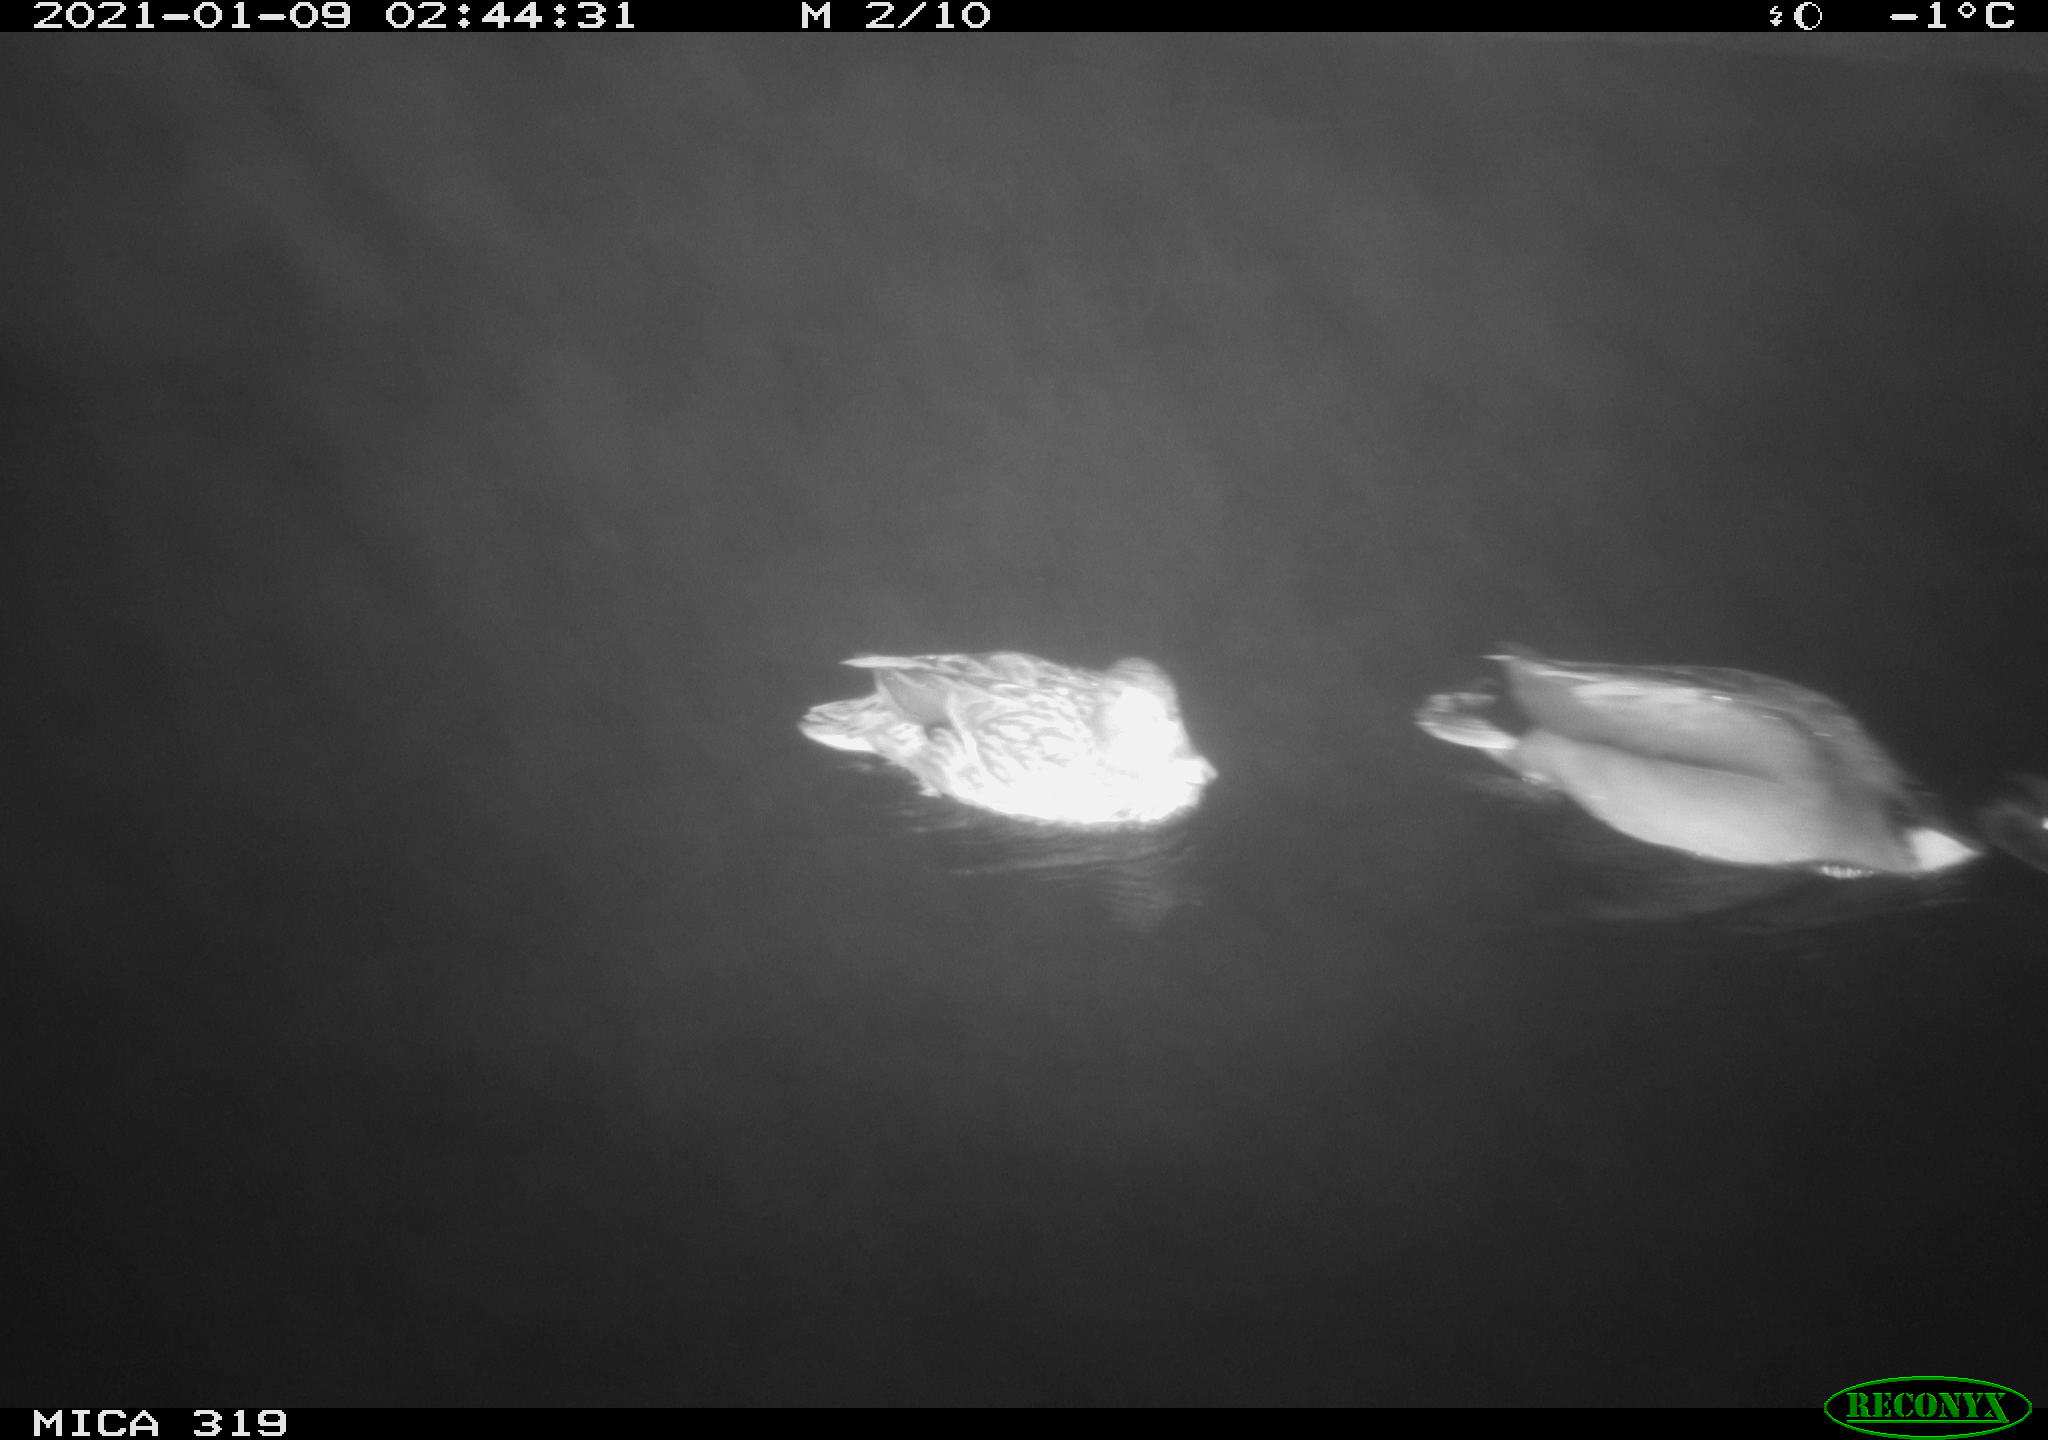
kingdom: Animalia
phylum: Chordata
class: Aves
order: Anseriformes
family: Anatidae
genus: Anas
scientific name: Anas platyrhynchos
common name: Mallard
